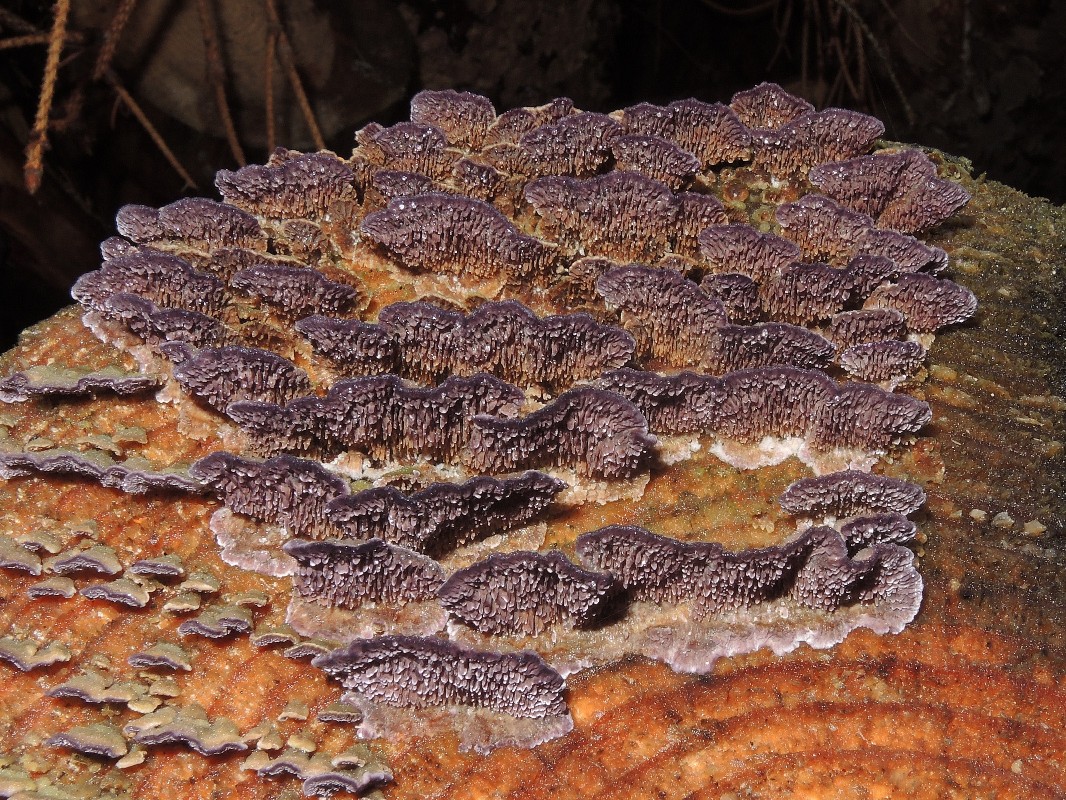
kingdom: Fungi
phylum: Basidiomycota
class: Agaricomycetes
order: Hymenochaetales
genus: Trichaptum
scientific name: Trichaptum fuscoviolaceum
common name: tandet violporesvamp
